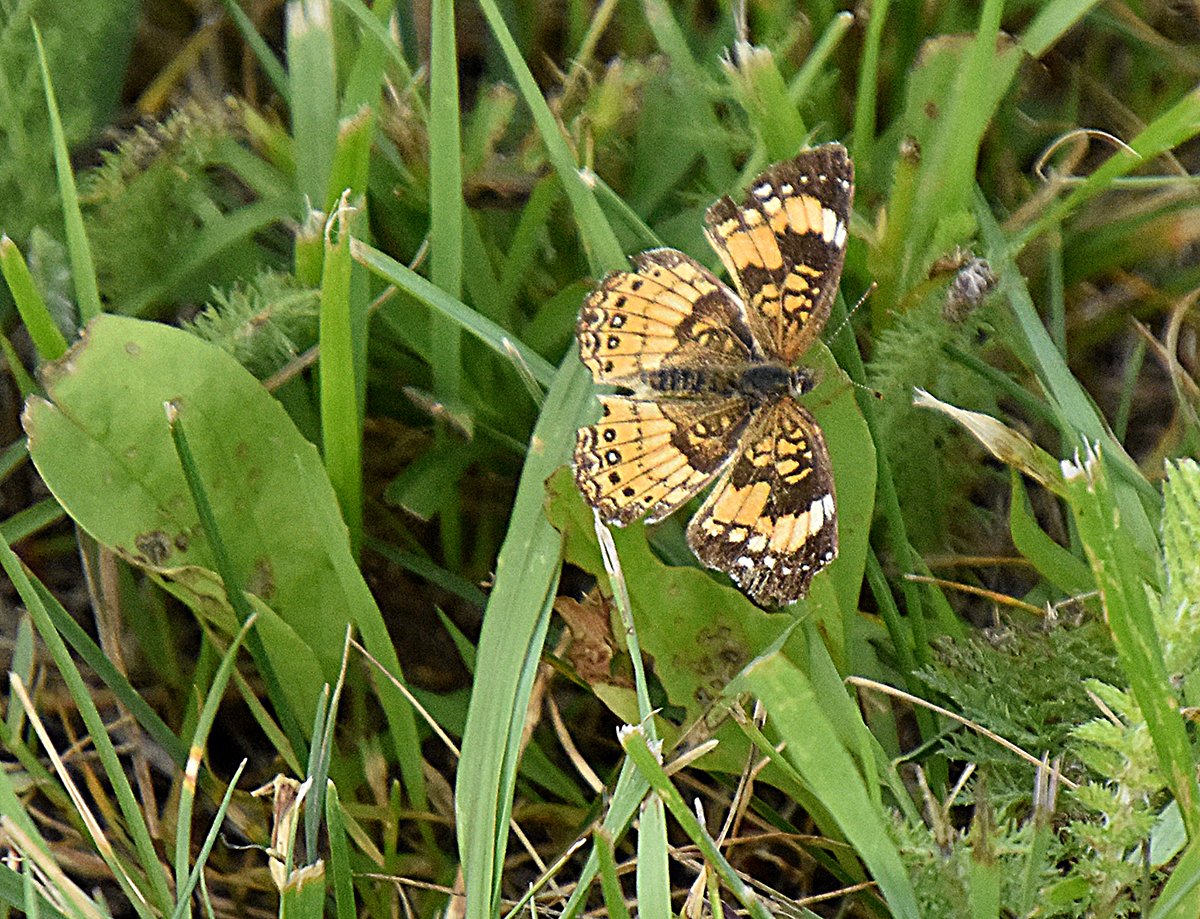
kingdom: Animalia
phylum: Arthropoda
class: Insecta
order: Lepidoptera
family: Nymphalidae
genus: Chlosyne
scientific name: Chlosyne nycteis
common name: Silvery Checkerspot
